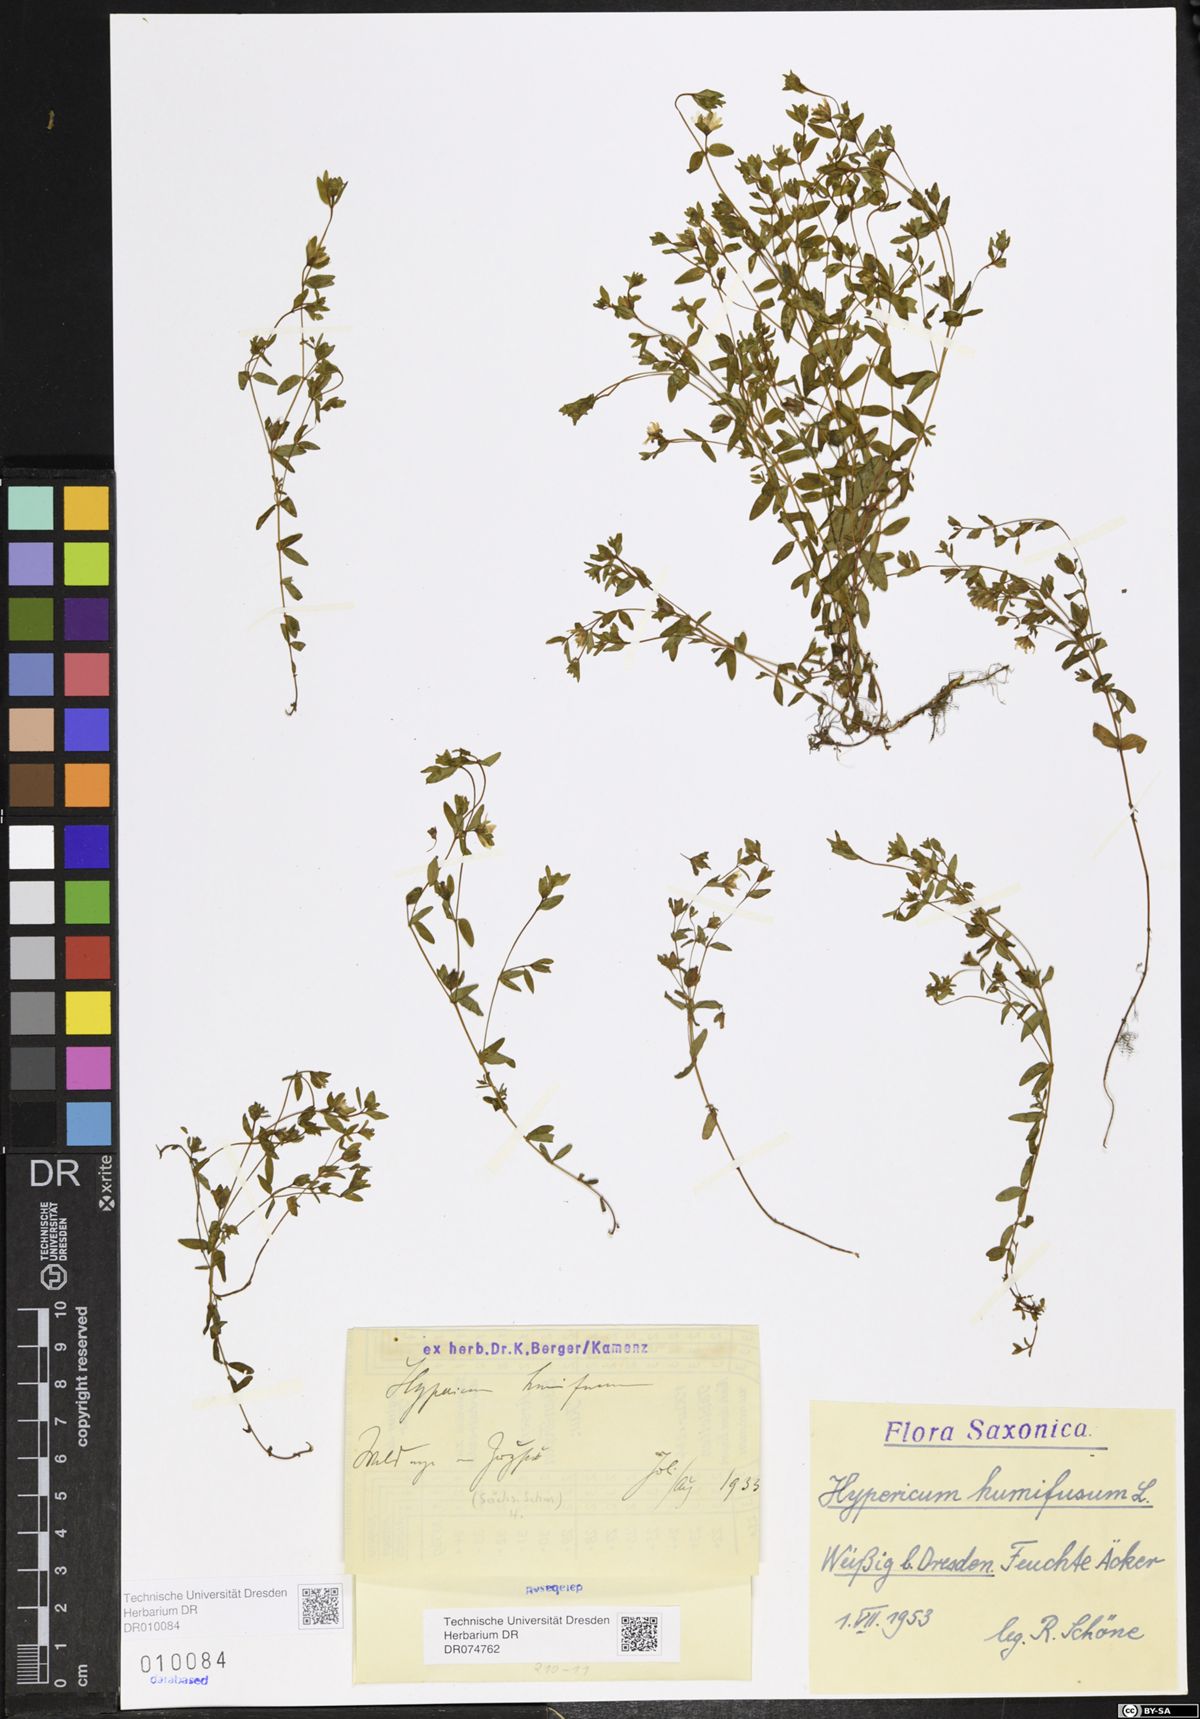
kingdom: Plantae
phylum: Tracheophyta
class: Magnoliopsida
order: Malpighiales
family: Hypericaceae
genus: Hypericum
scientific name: Hypericum humifusum
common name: Trailing st. john's-wort
